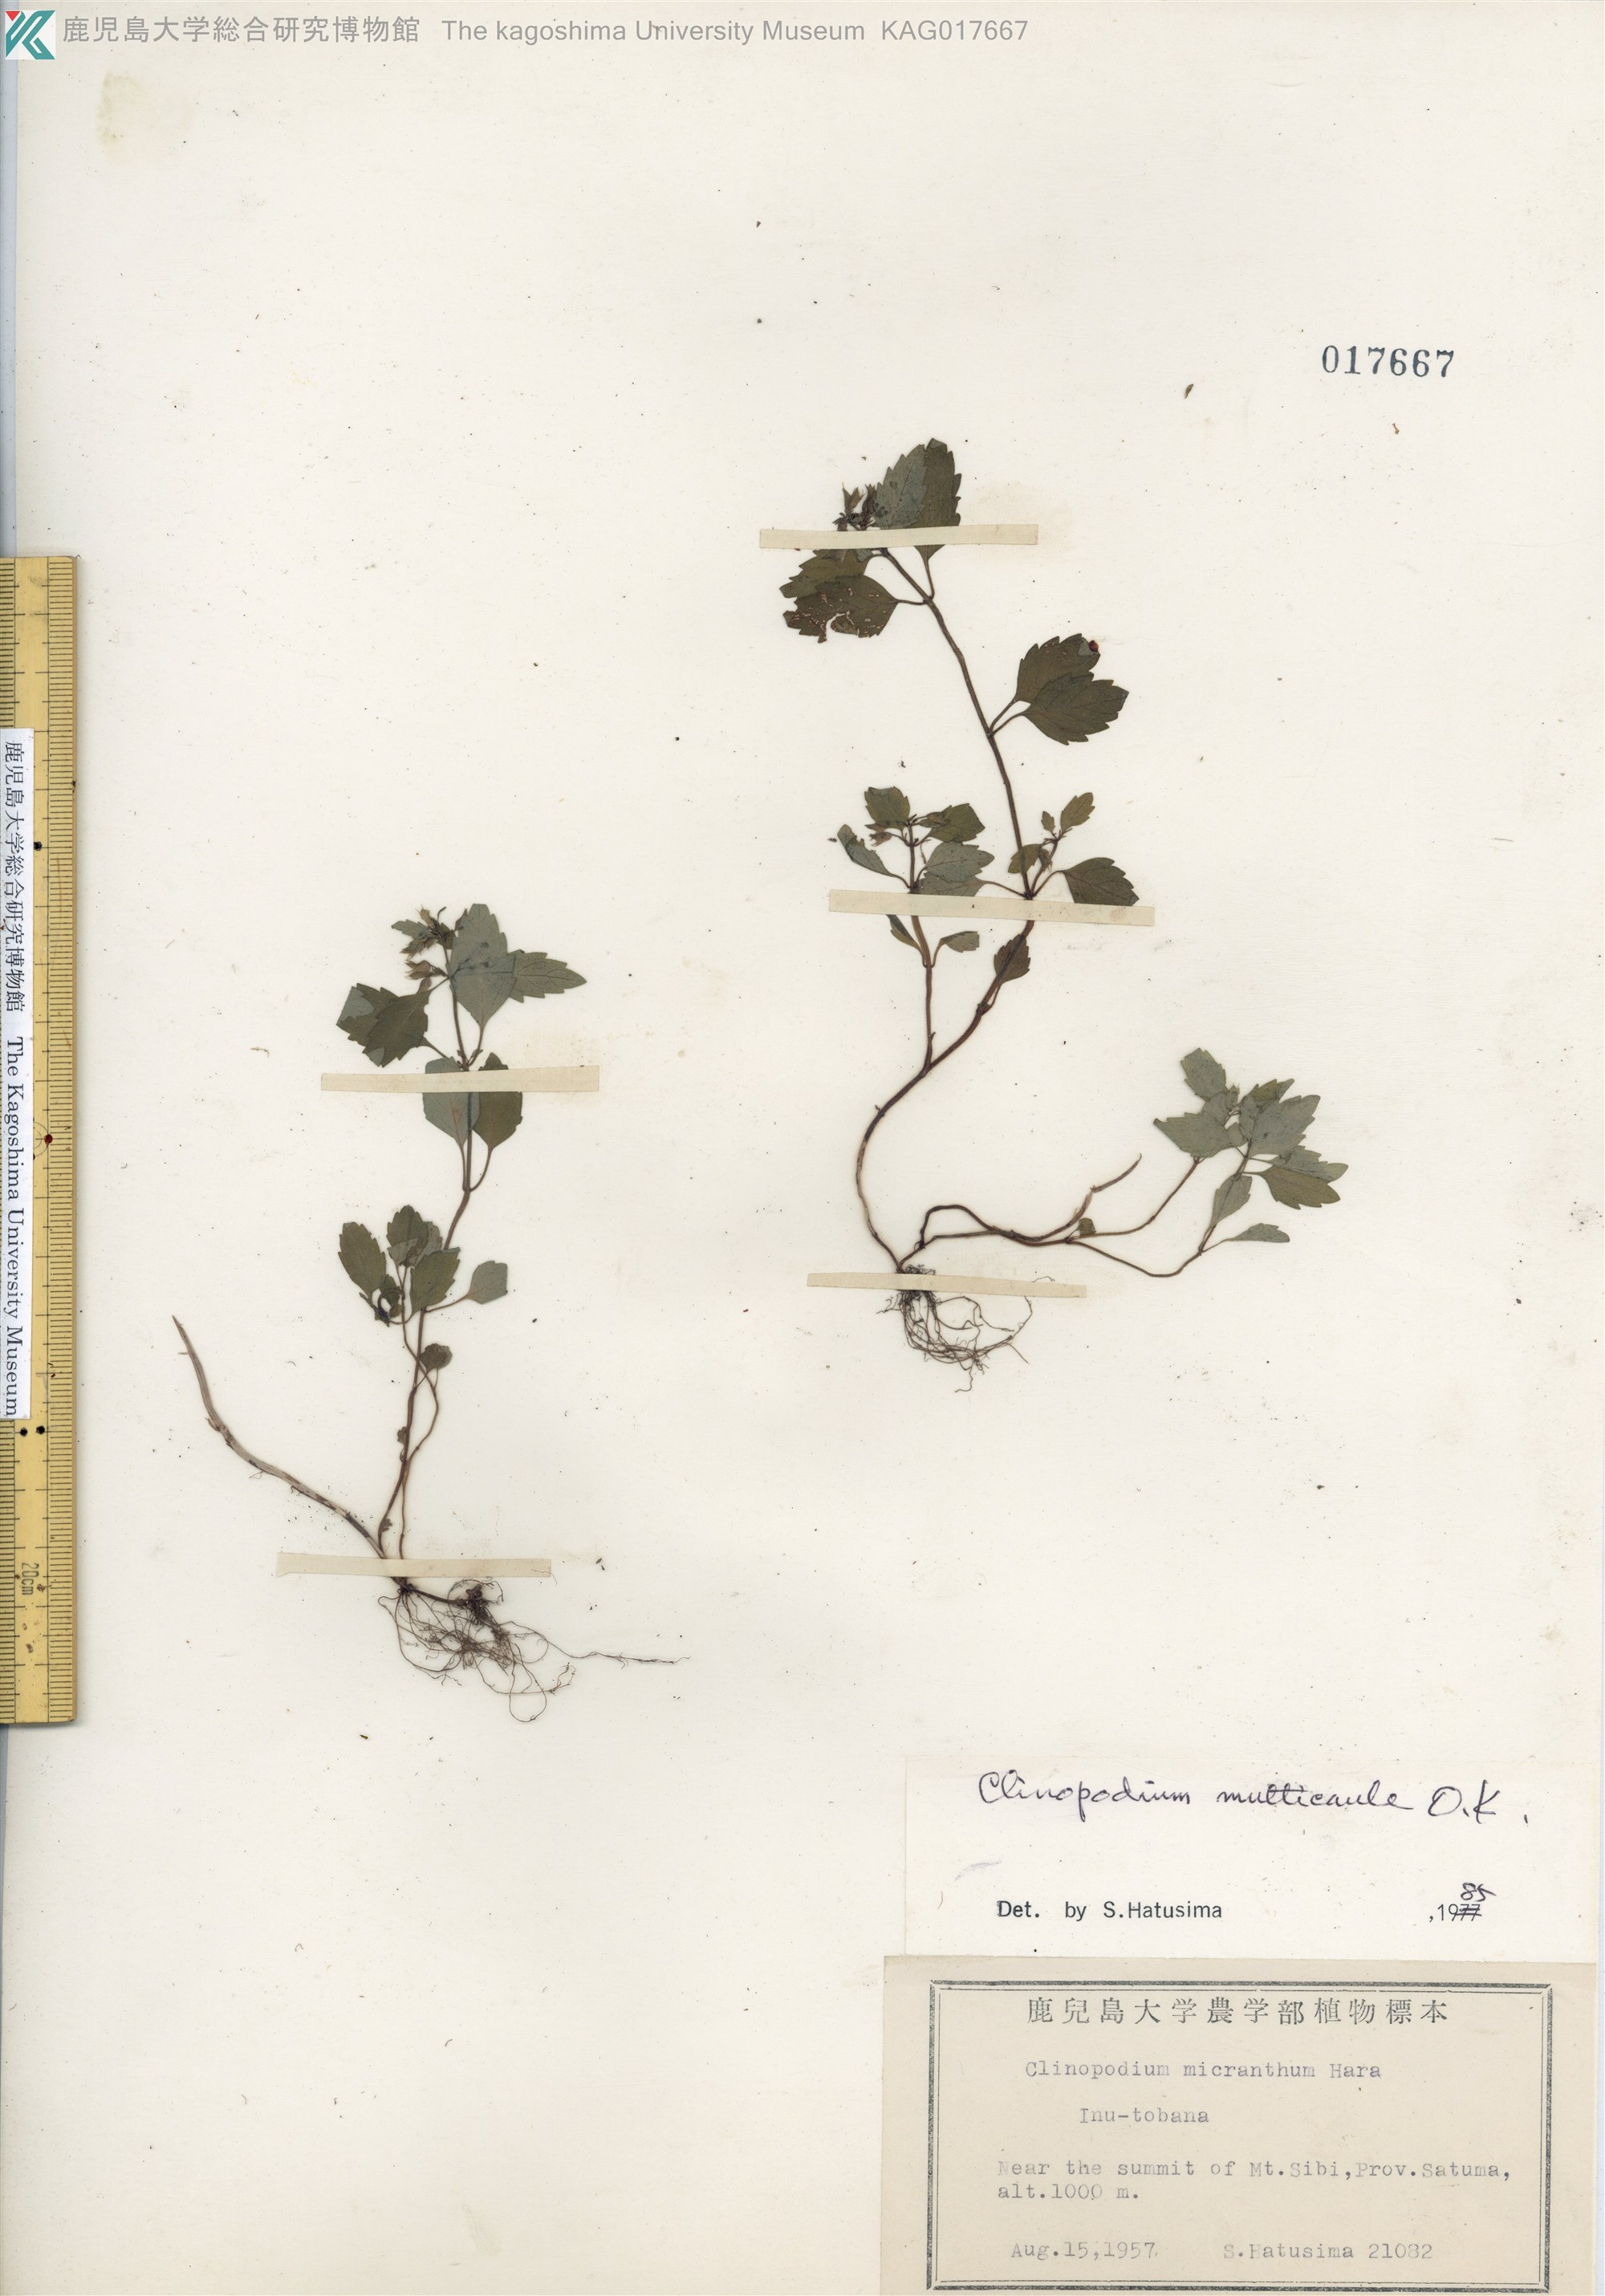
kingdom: Plantae
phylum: Tracheophyta
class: Magnoliopsida
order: Lamiales
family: Lamiaceae
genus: Clinopodium
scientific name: Clinopodium multicaule
